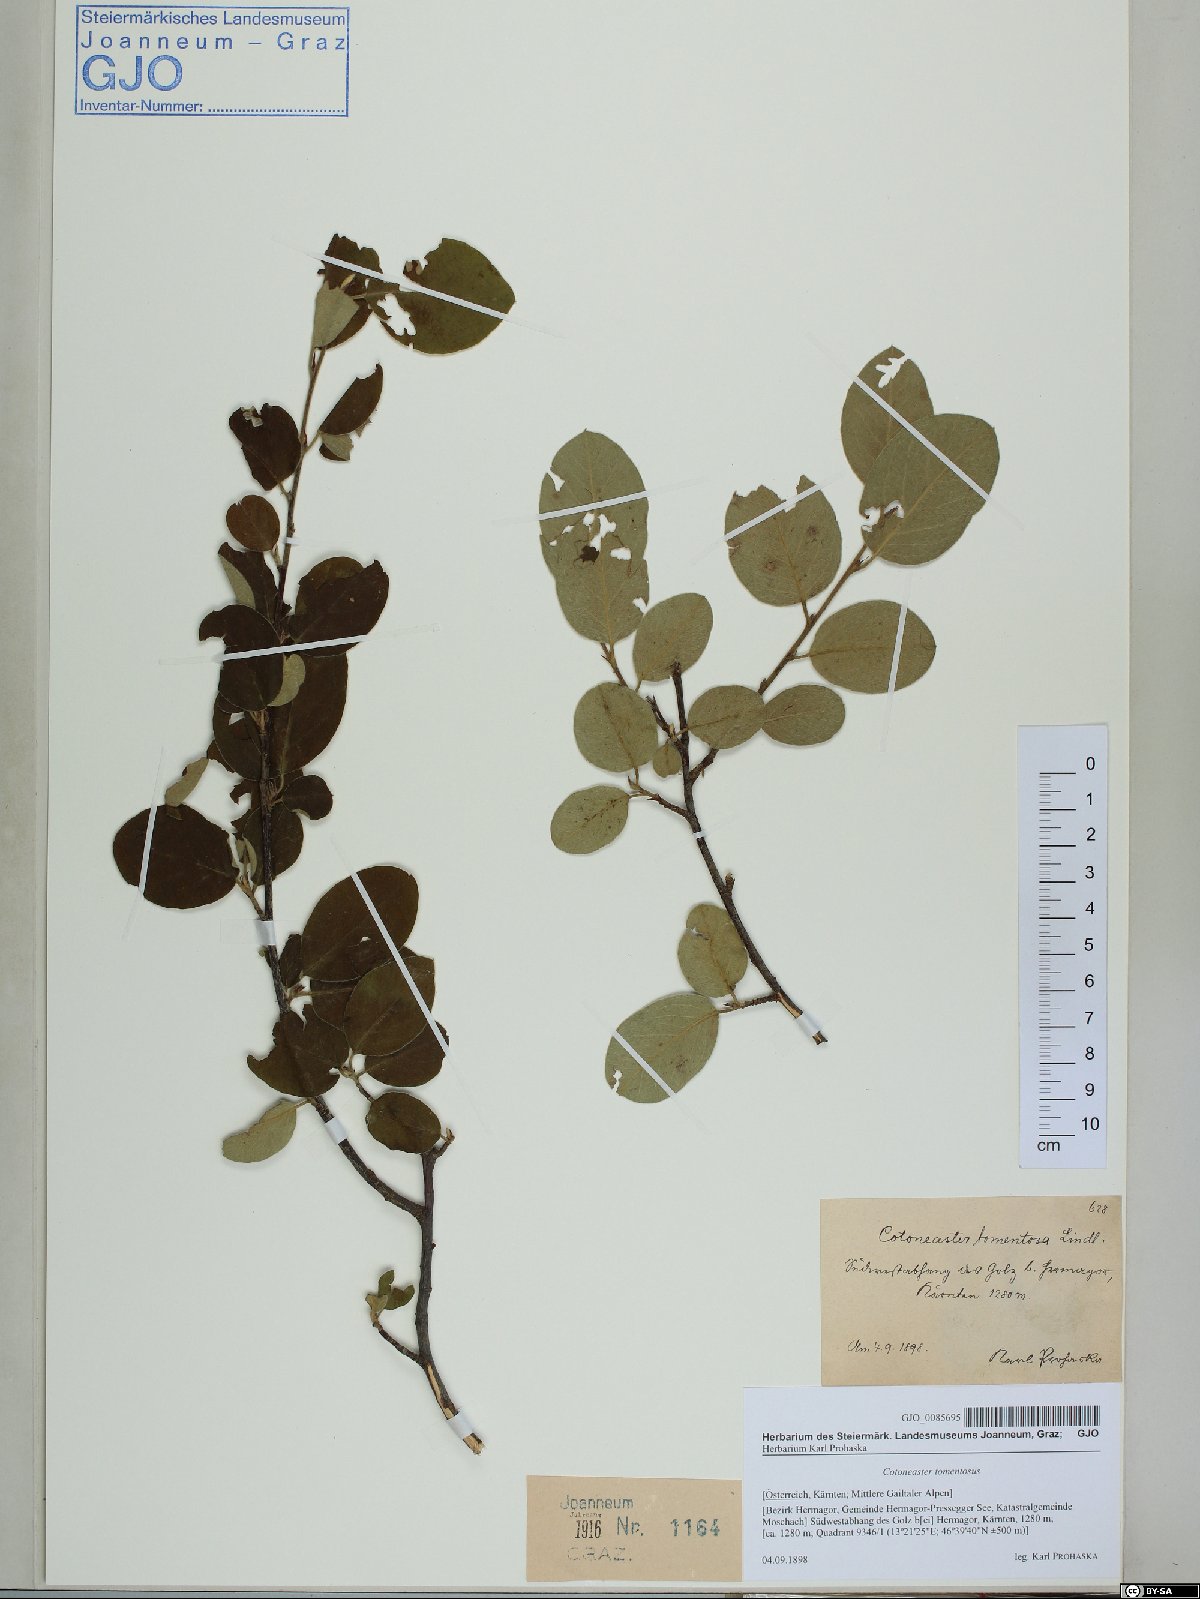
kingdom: Plantae
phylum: Tracheophyta
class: Magnoliopsida
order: Rosales
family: Rosaceae
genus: Cotoneaster
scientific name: Cotoneaster tomentosus
